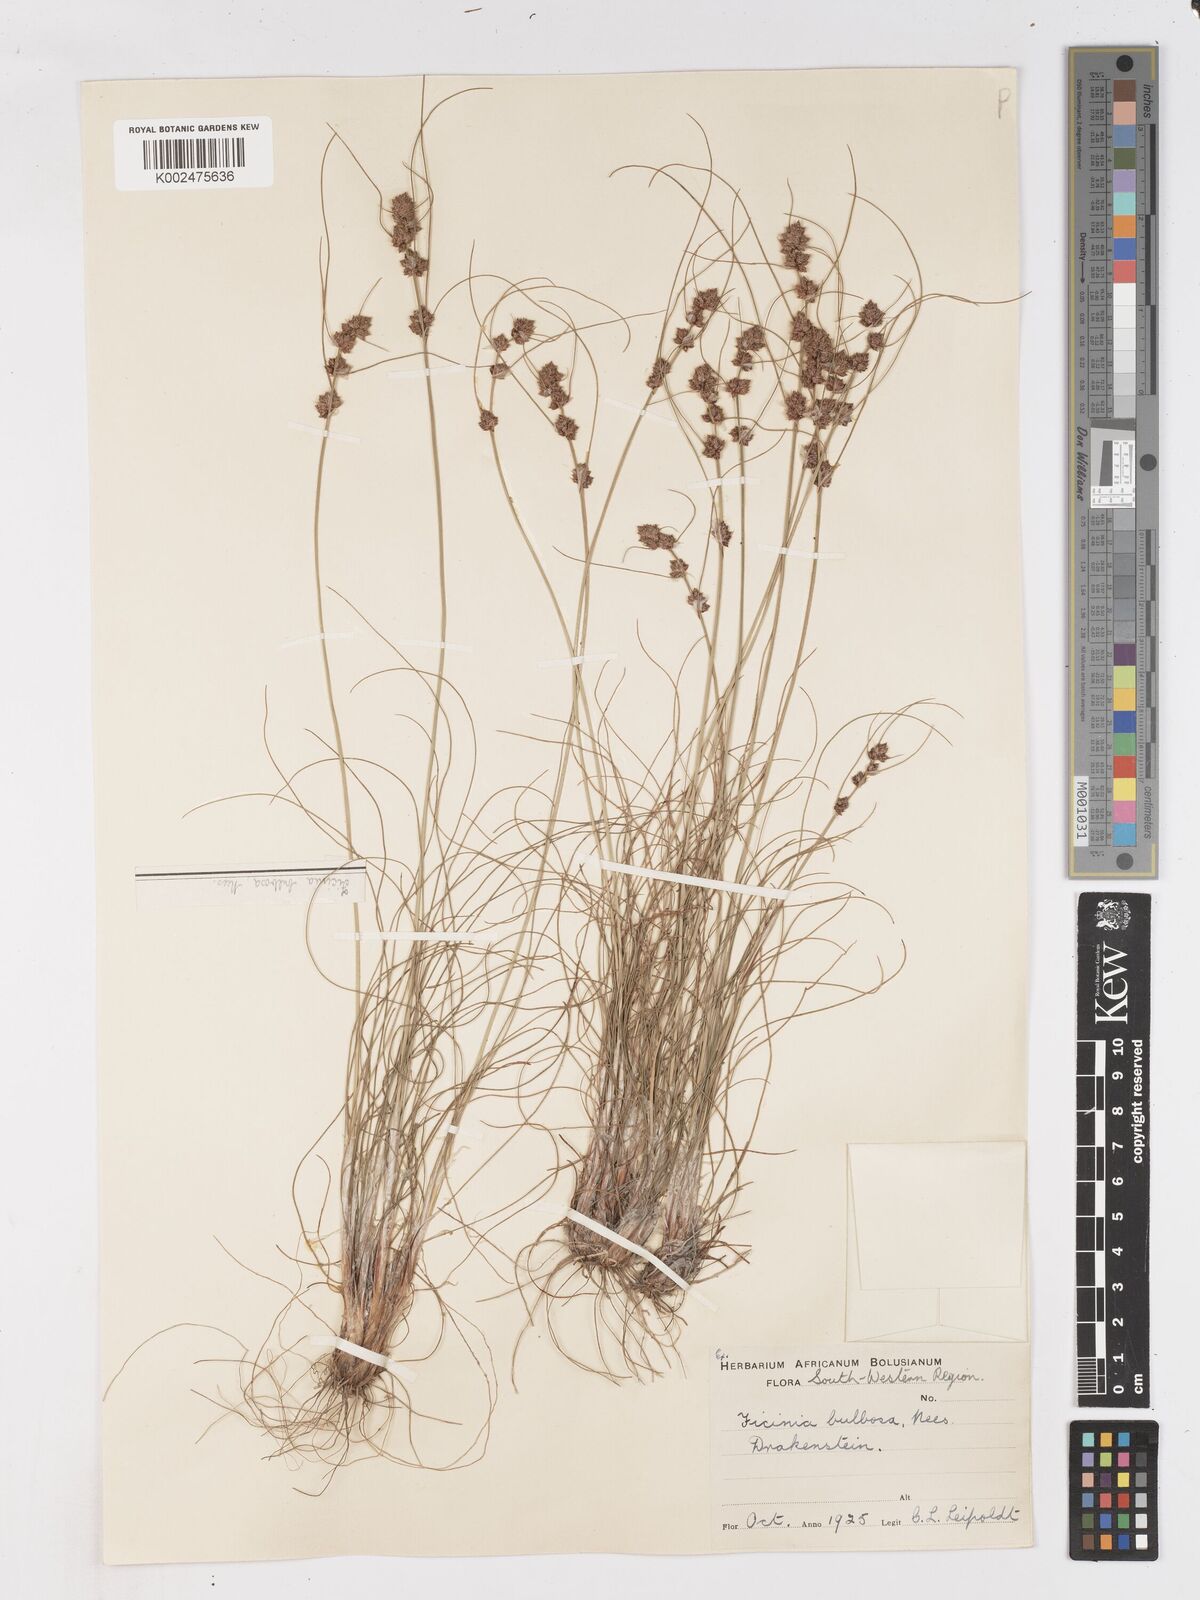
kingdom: Plantae
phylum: Tracheophyta
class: Liliopsida
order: Poales
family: Cyperaceae
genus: Ficinia
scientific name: Ficinia bulbosa
